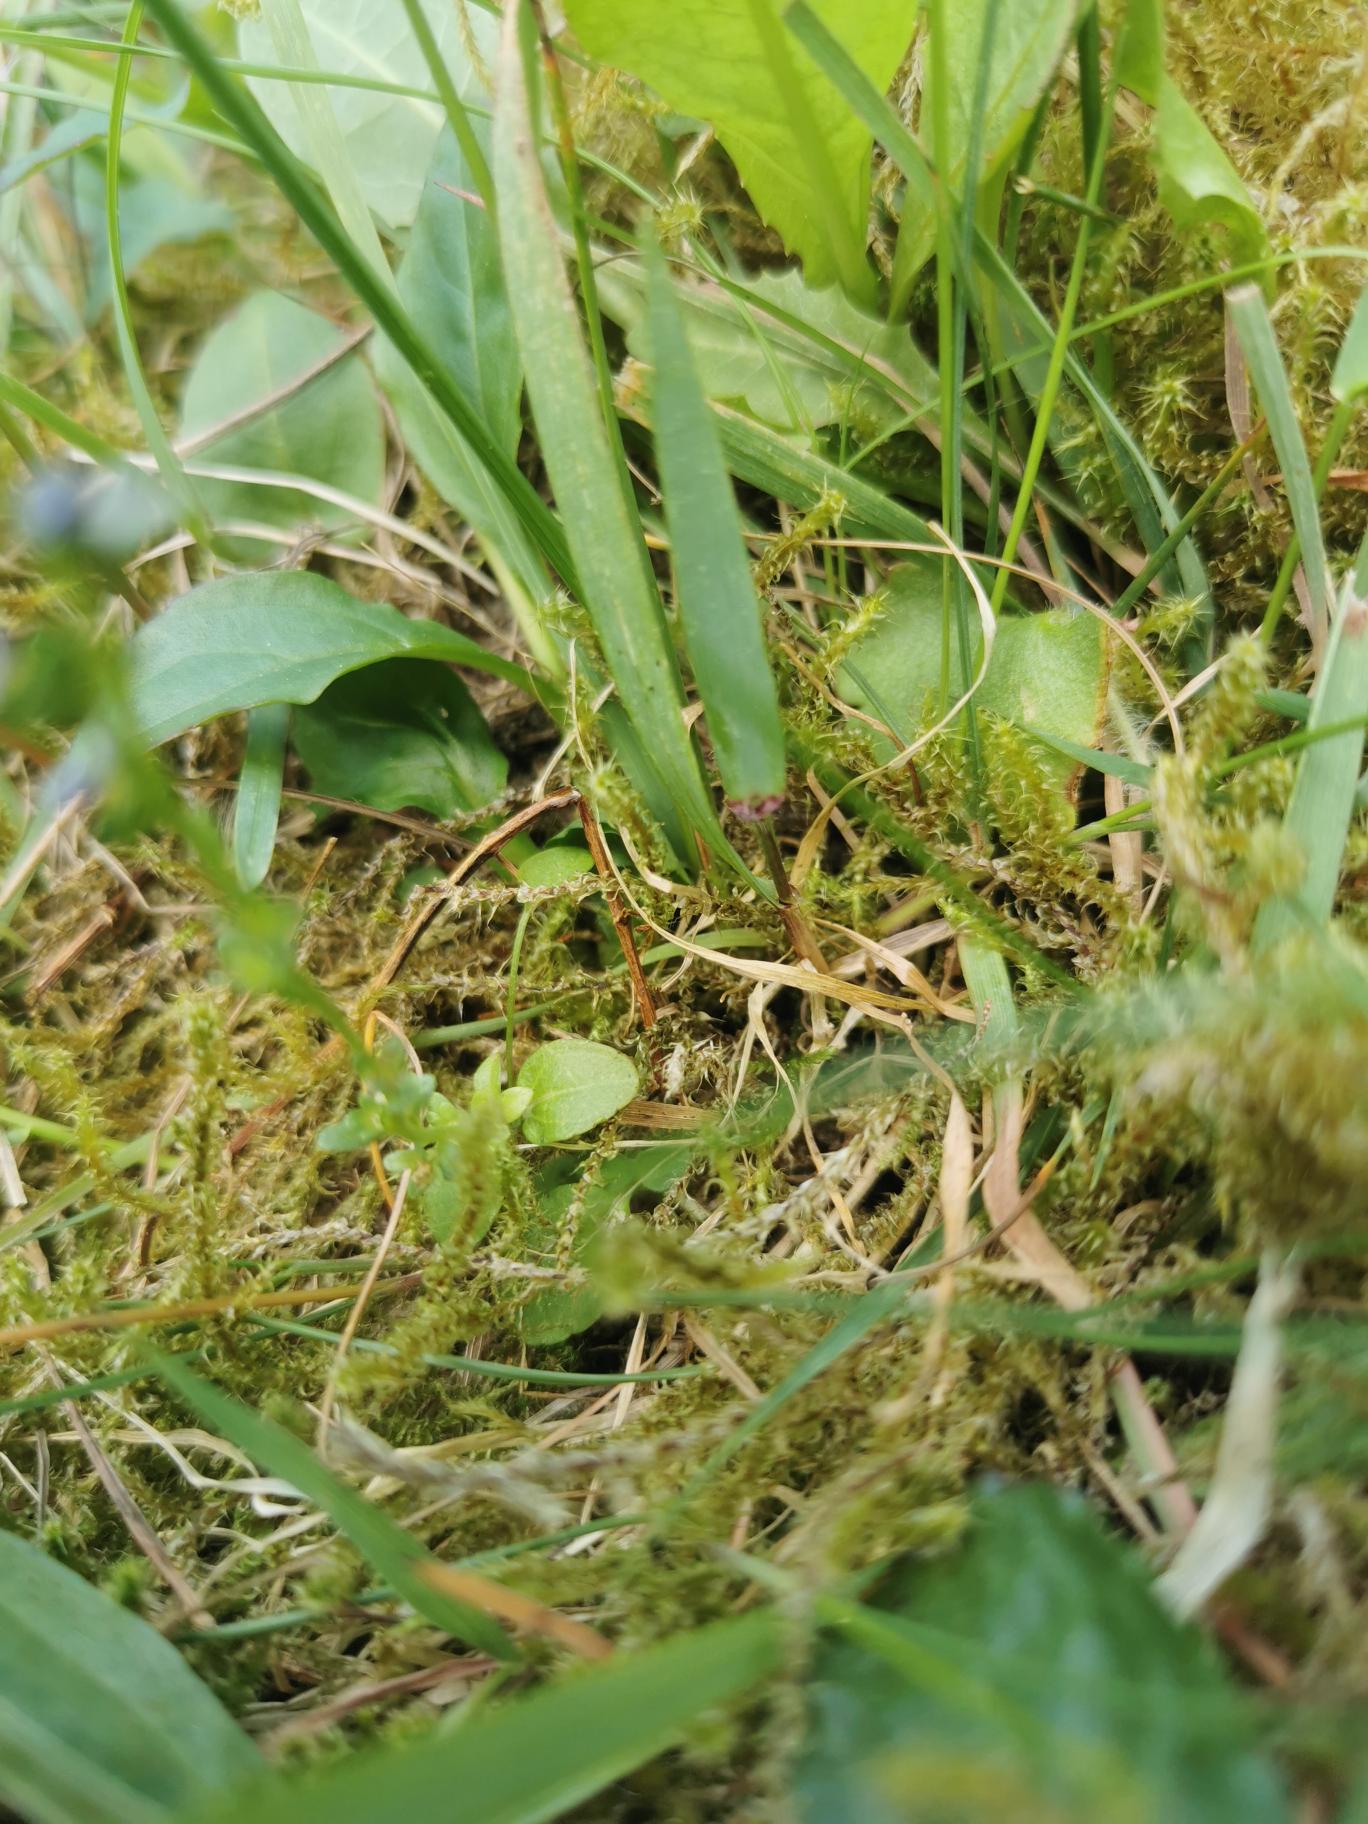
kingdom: Plantae
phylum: Tracheophyta
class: Magnoliopsida
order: Lamiales
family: Plantaginaceae
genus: Veronica
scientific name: Veronica serpyllifolia
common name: Glat ærenpris
